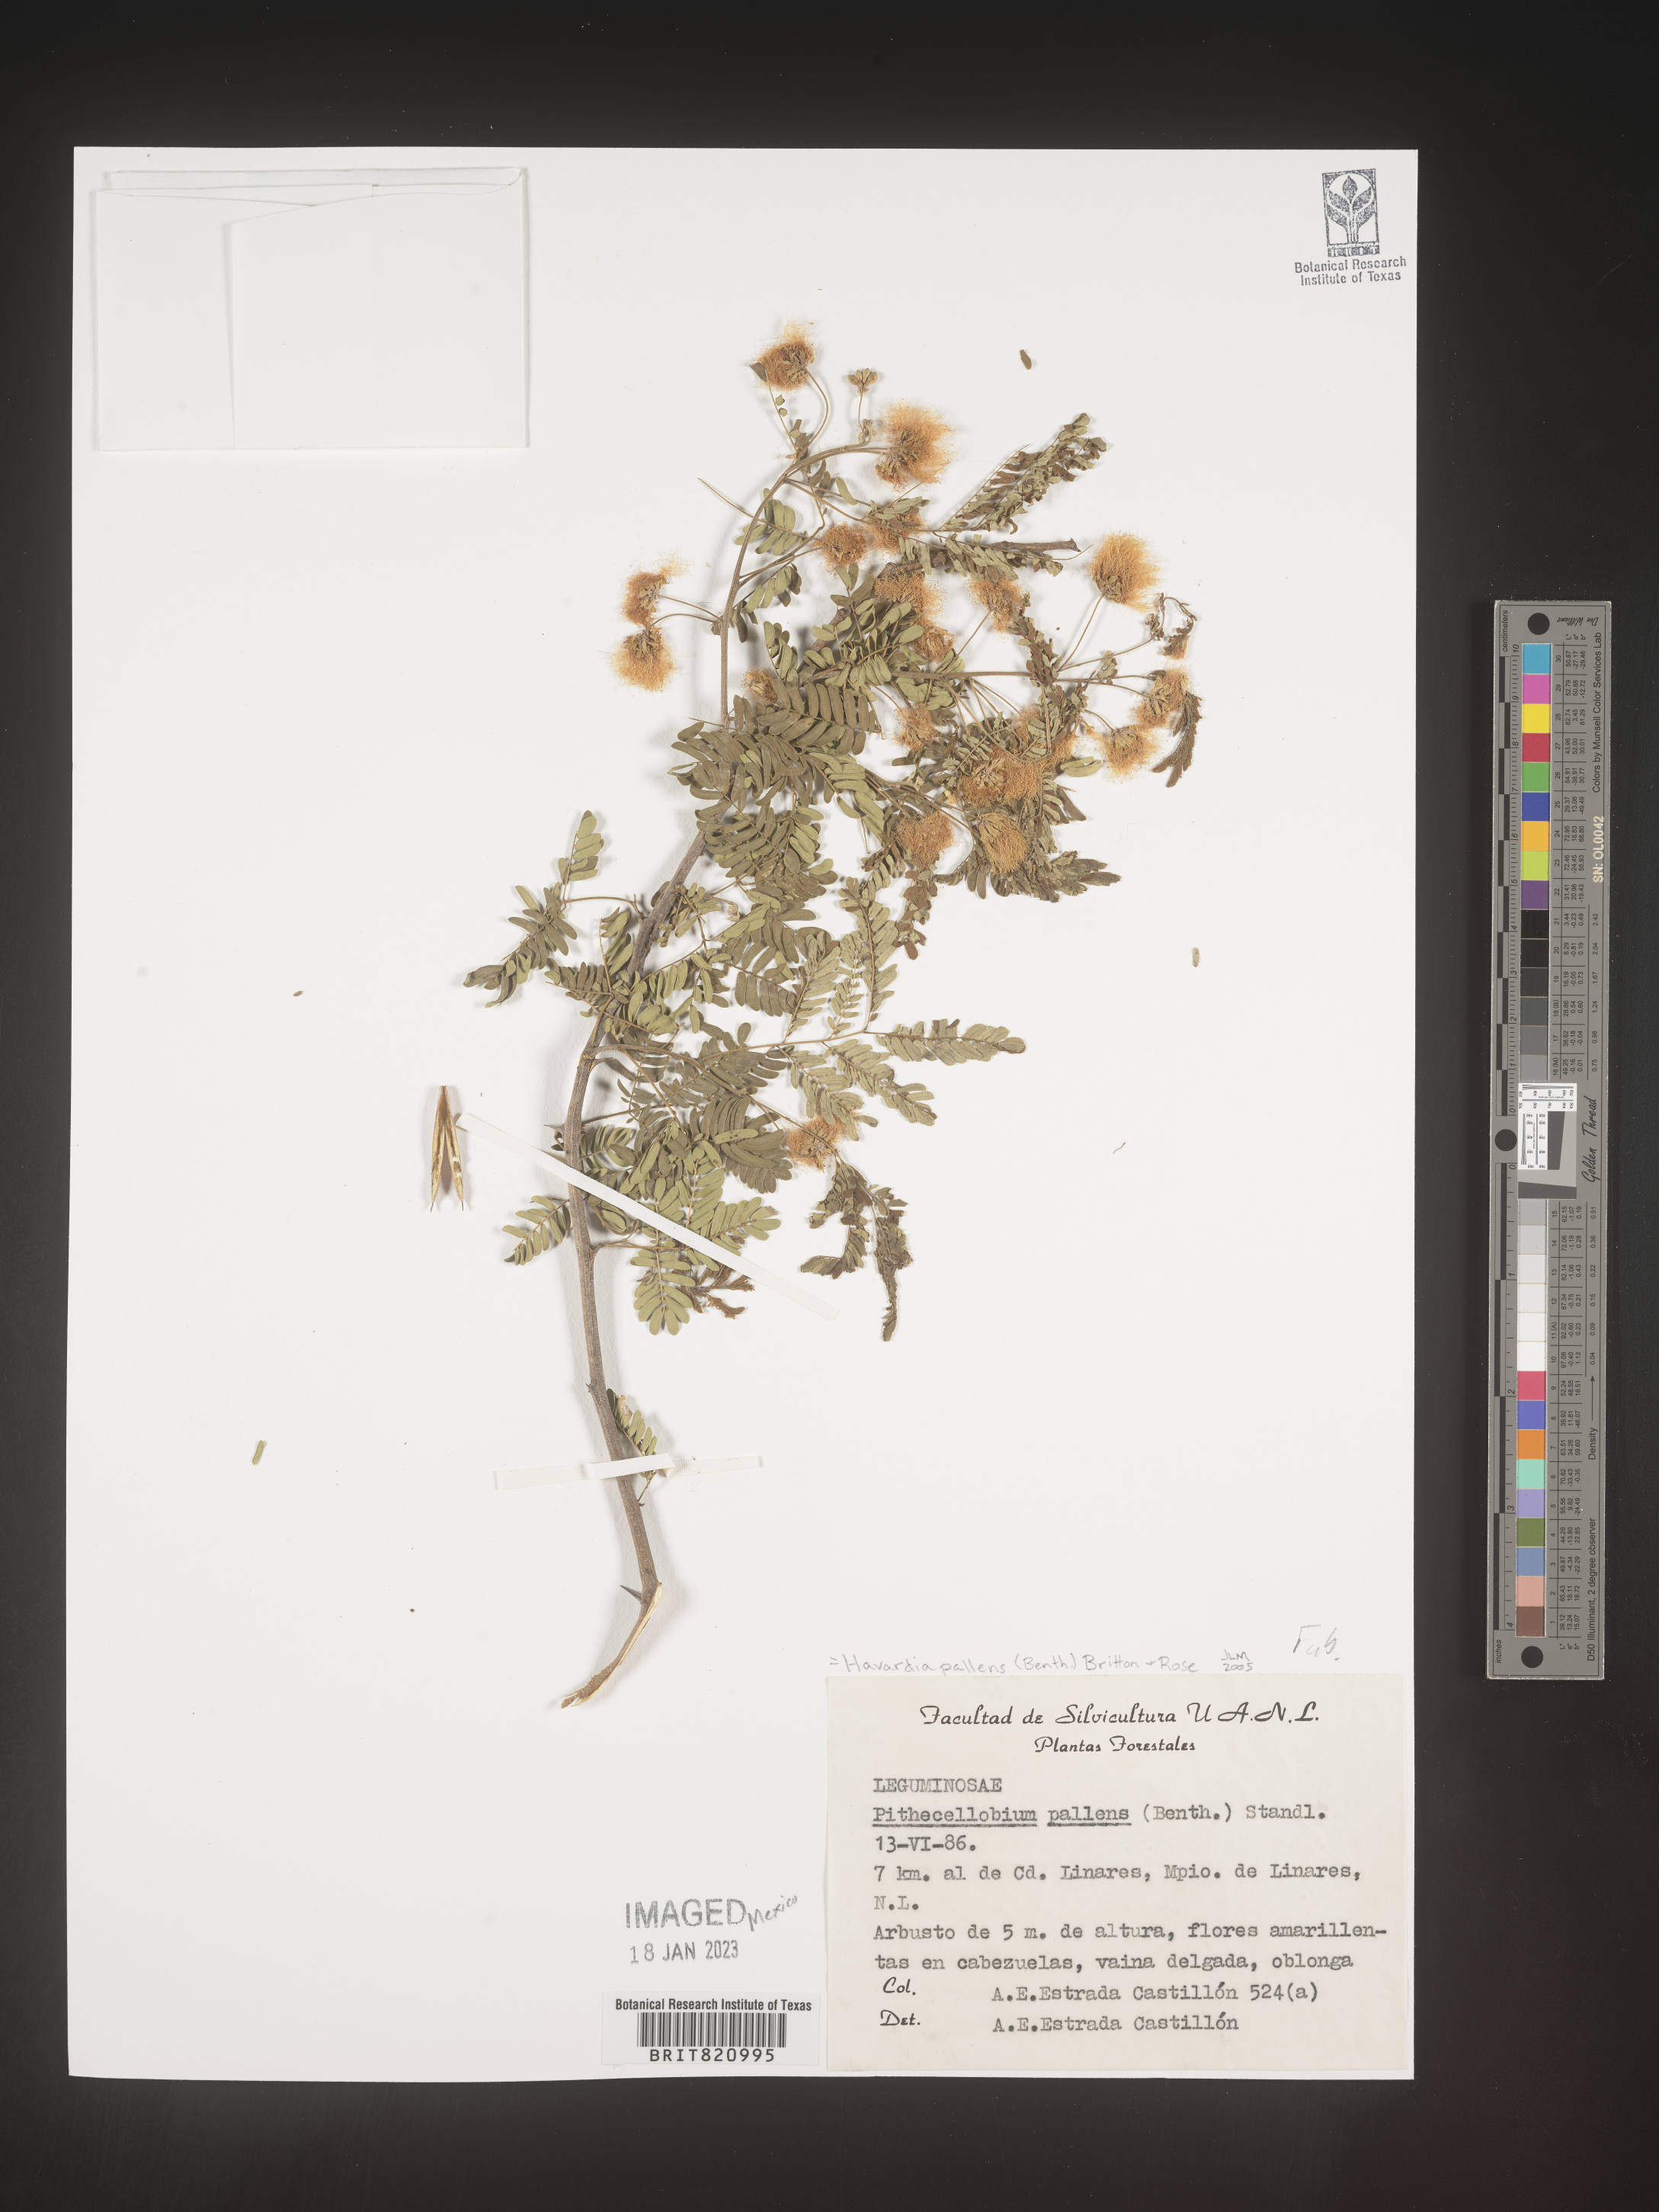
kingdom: Plantae
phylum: Tracheophyta
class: Magnoliopsida
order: Fabales
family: Fabaceae
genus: Havardia
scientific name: Havardia
